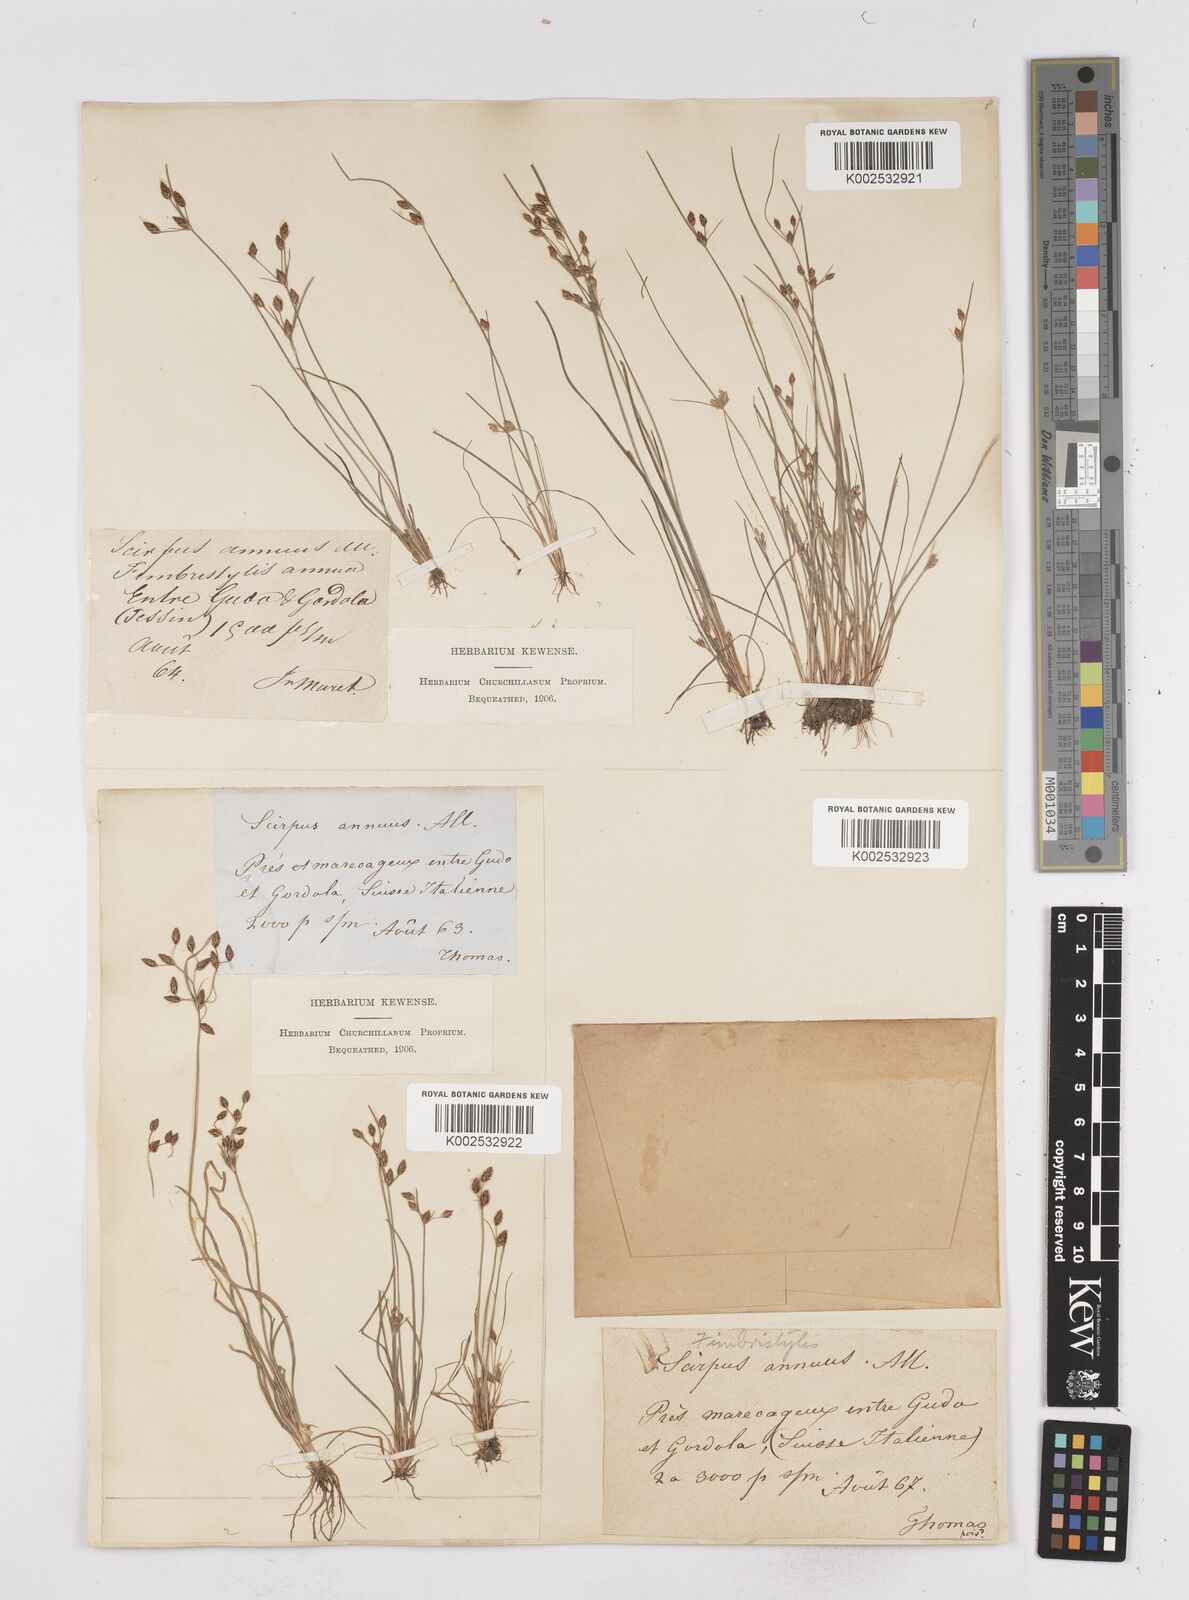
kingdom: Plantae
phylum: Tracheophyta
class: Liliopsida
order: Poales
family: Cyperaceae
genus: Fimbristylis
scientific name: Fimbristylis dichotoma
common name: Forked fimbry
